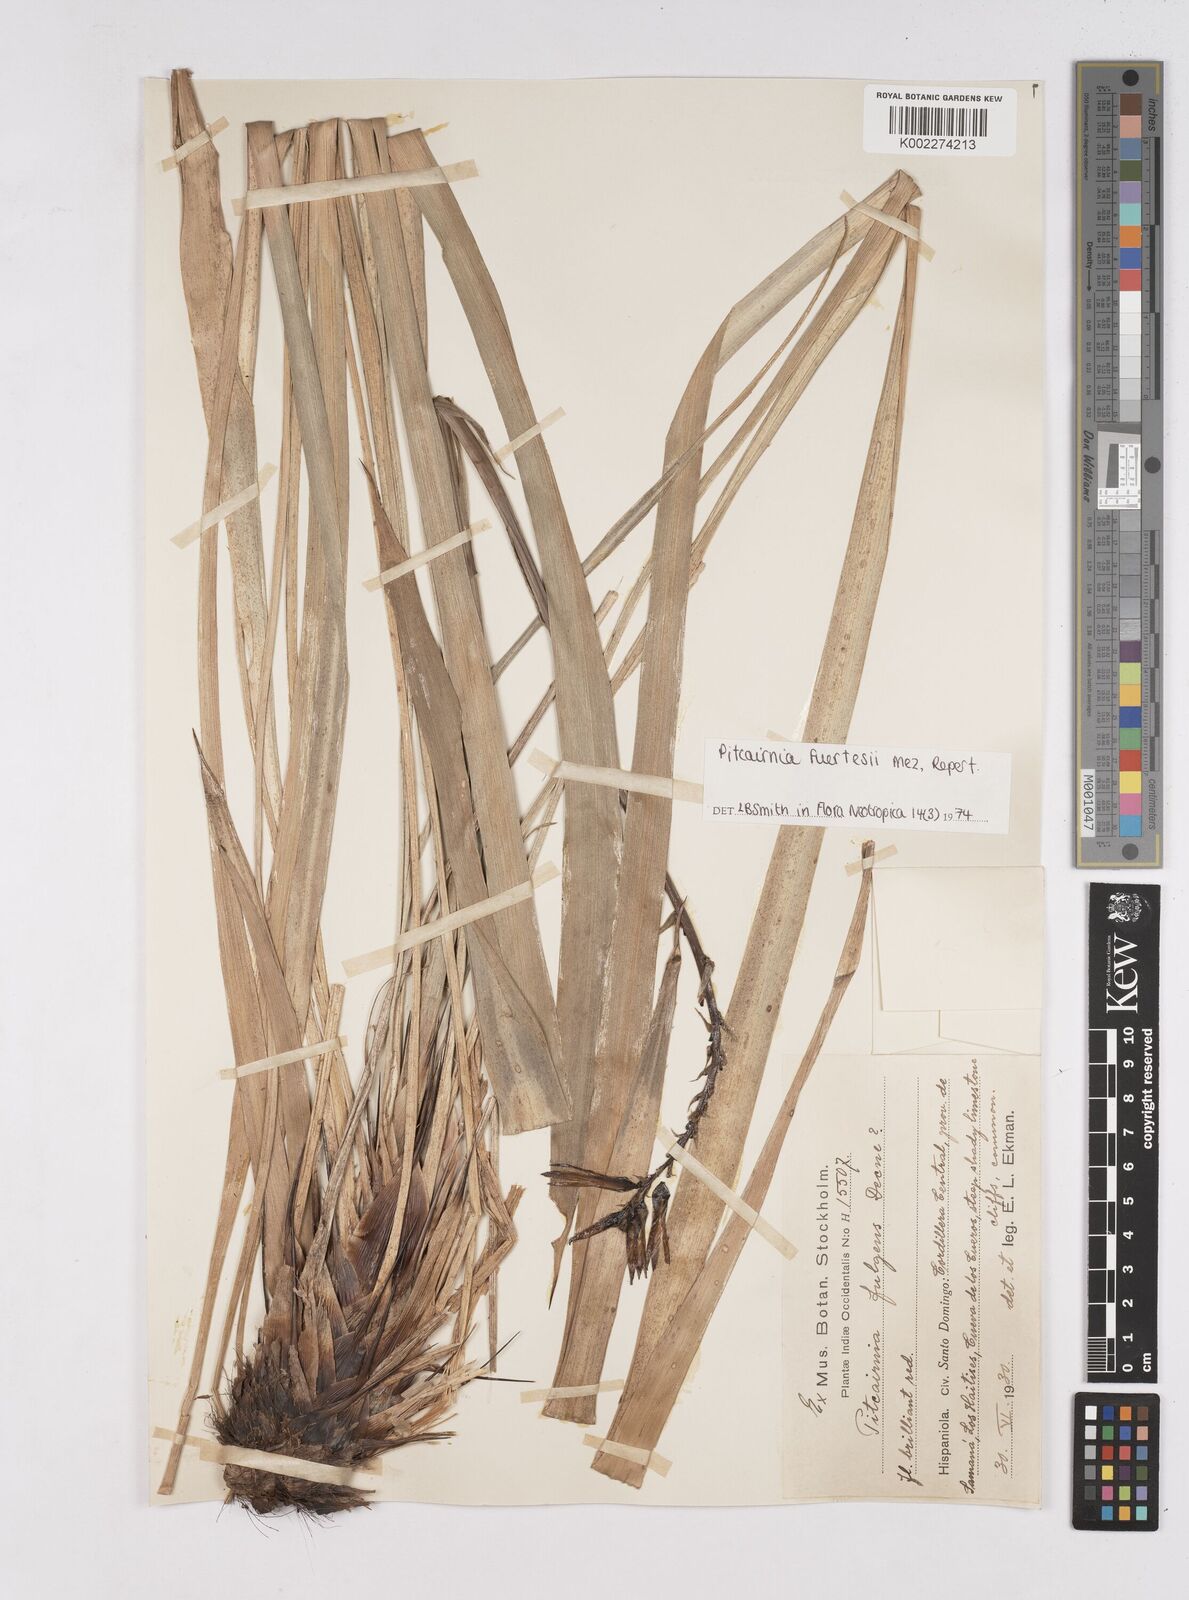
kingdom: Plantae
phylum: Tracheophyta
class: Liliopsida
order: Poales
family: Bromeliaceae
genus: Pitcairnia
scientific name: Pitcairnia fuertesii
